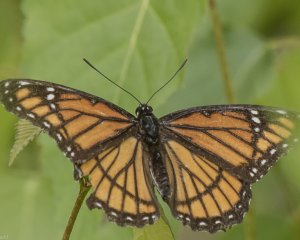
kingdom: Animalia
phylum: Arthropoda
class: Insecta
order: Lepidoptera
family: Nymphalidae
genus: Limenitis
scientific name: Limenitis archippus
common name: Viceroy
